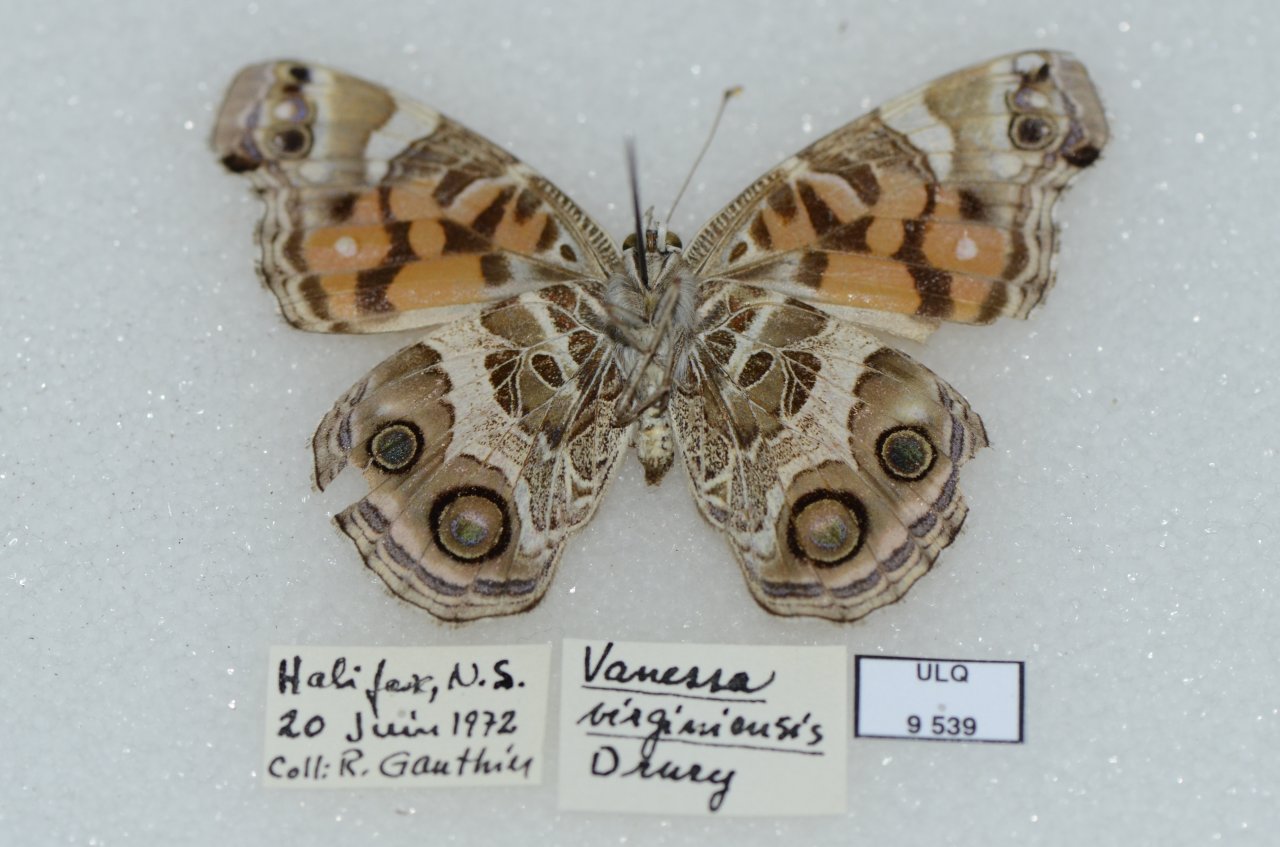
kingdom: Animalia
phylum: Arthropoda
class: Insecta
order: Lepidoptera
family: Nymphalidae
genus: Vanessa
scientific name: Vanessa virginiensis
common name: American Lady
